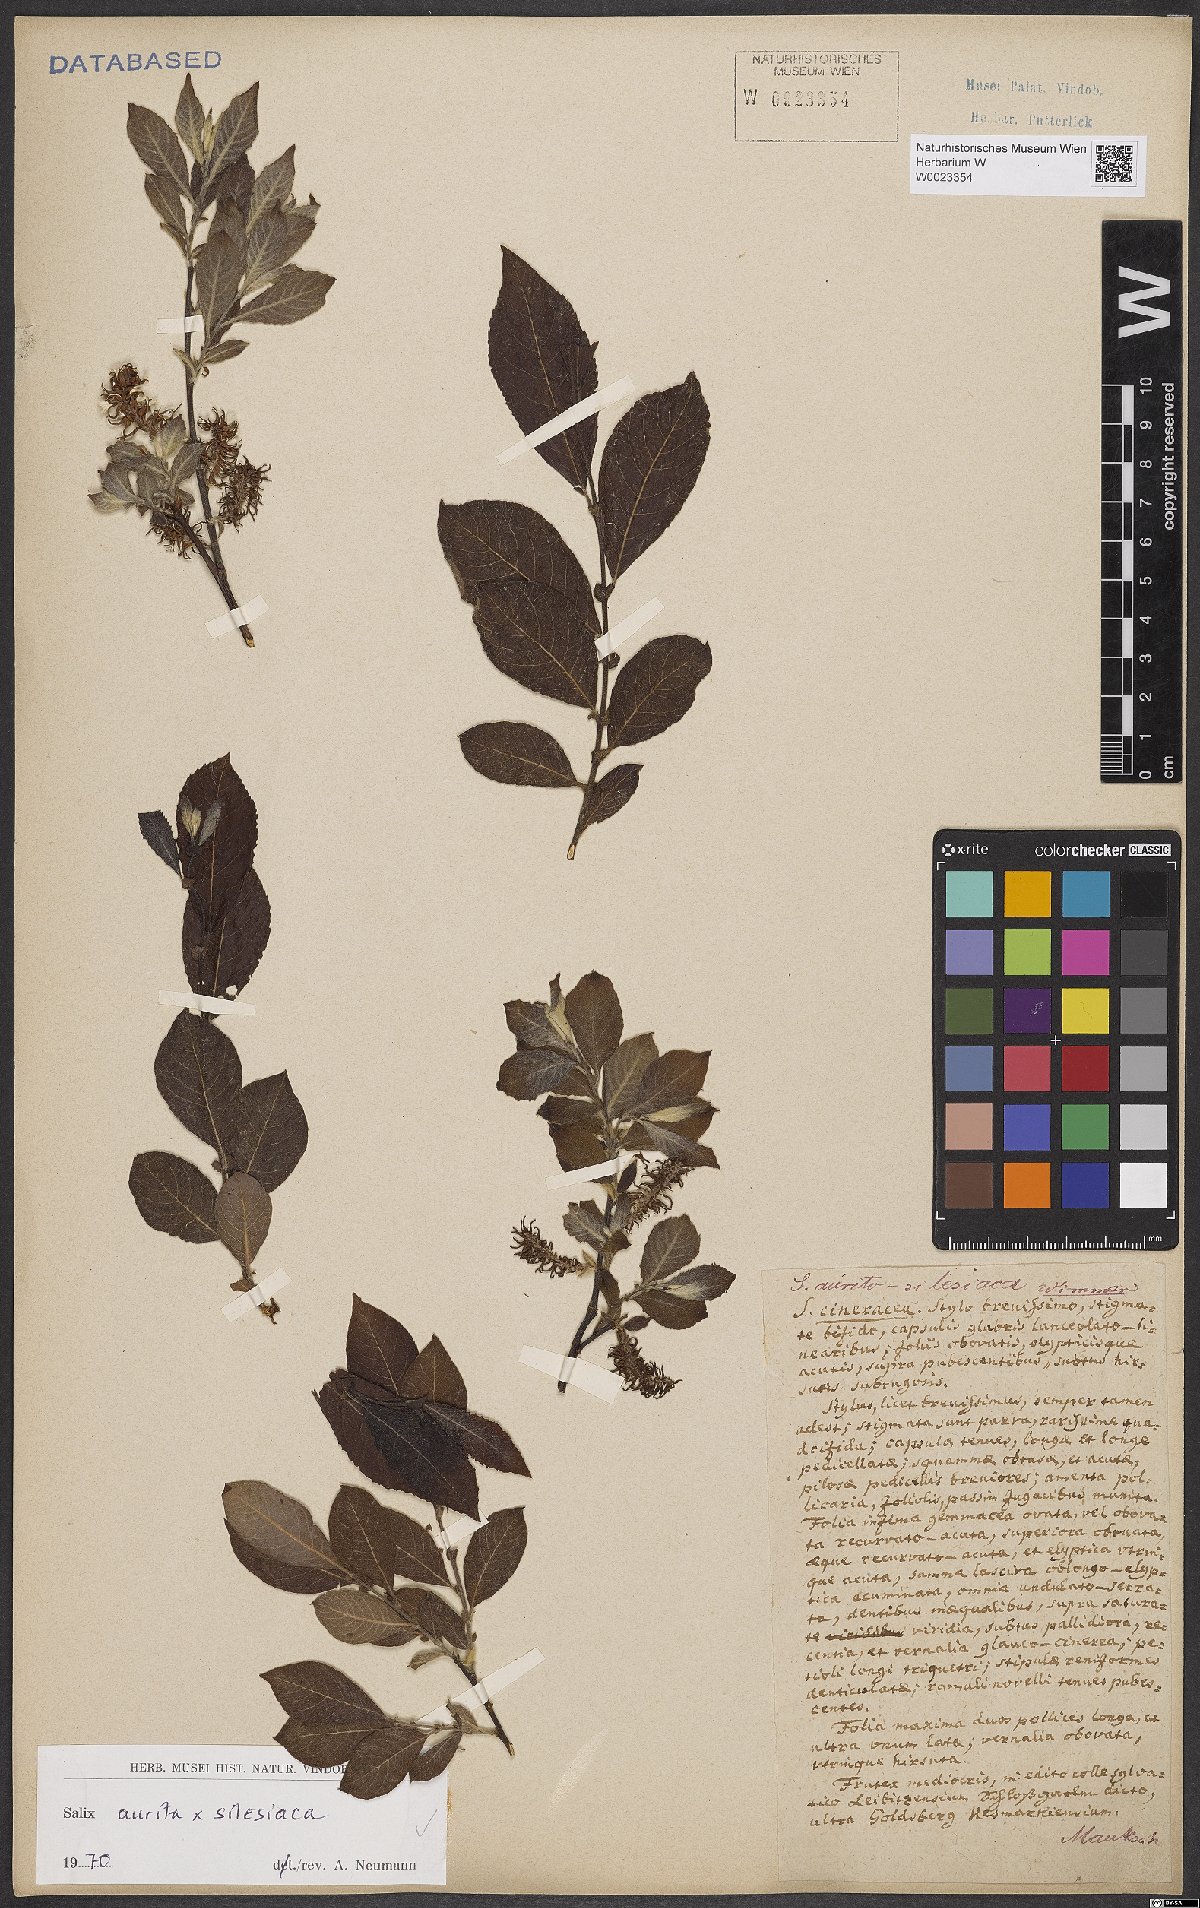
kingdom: Plantae
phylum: Tracheophyta
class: Magnoliopsida
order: Malpighiales
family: Salicaceae
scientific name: Salicaceae
